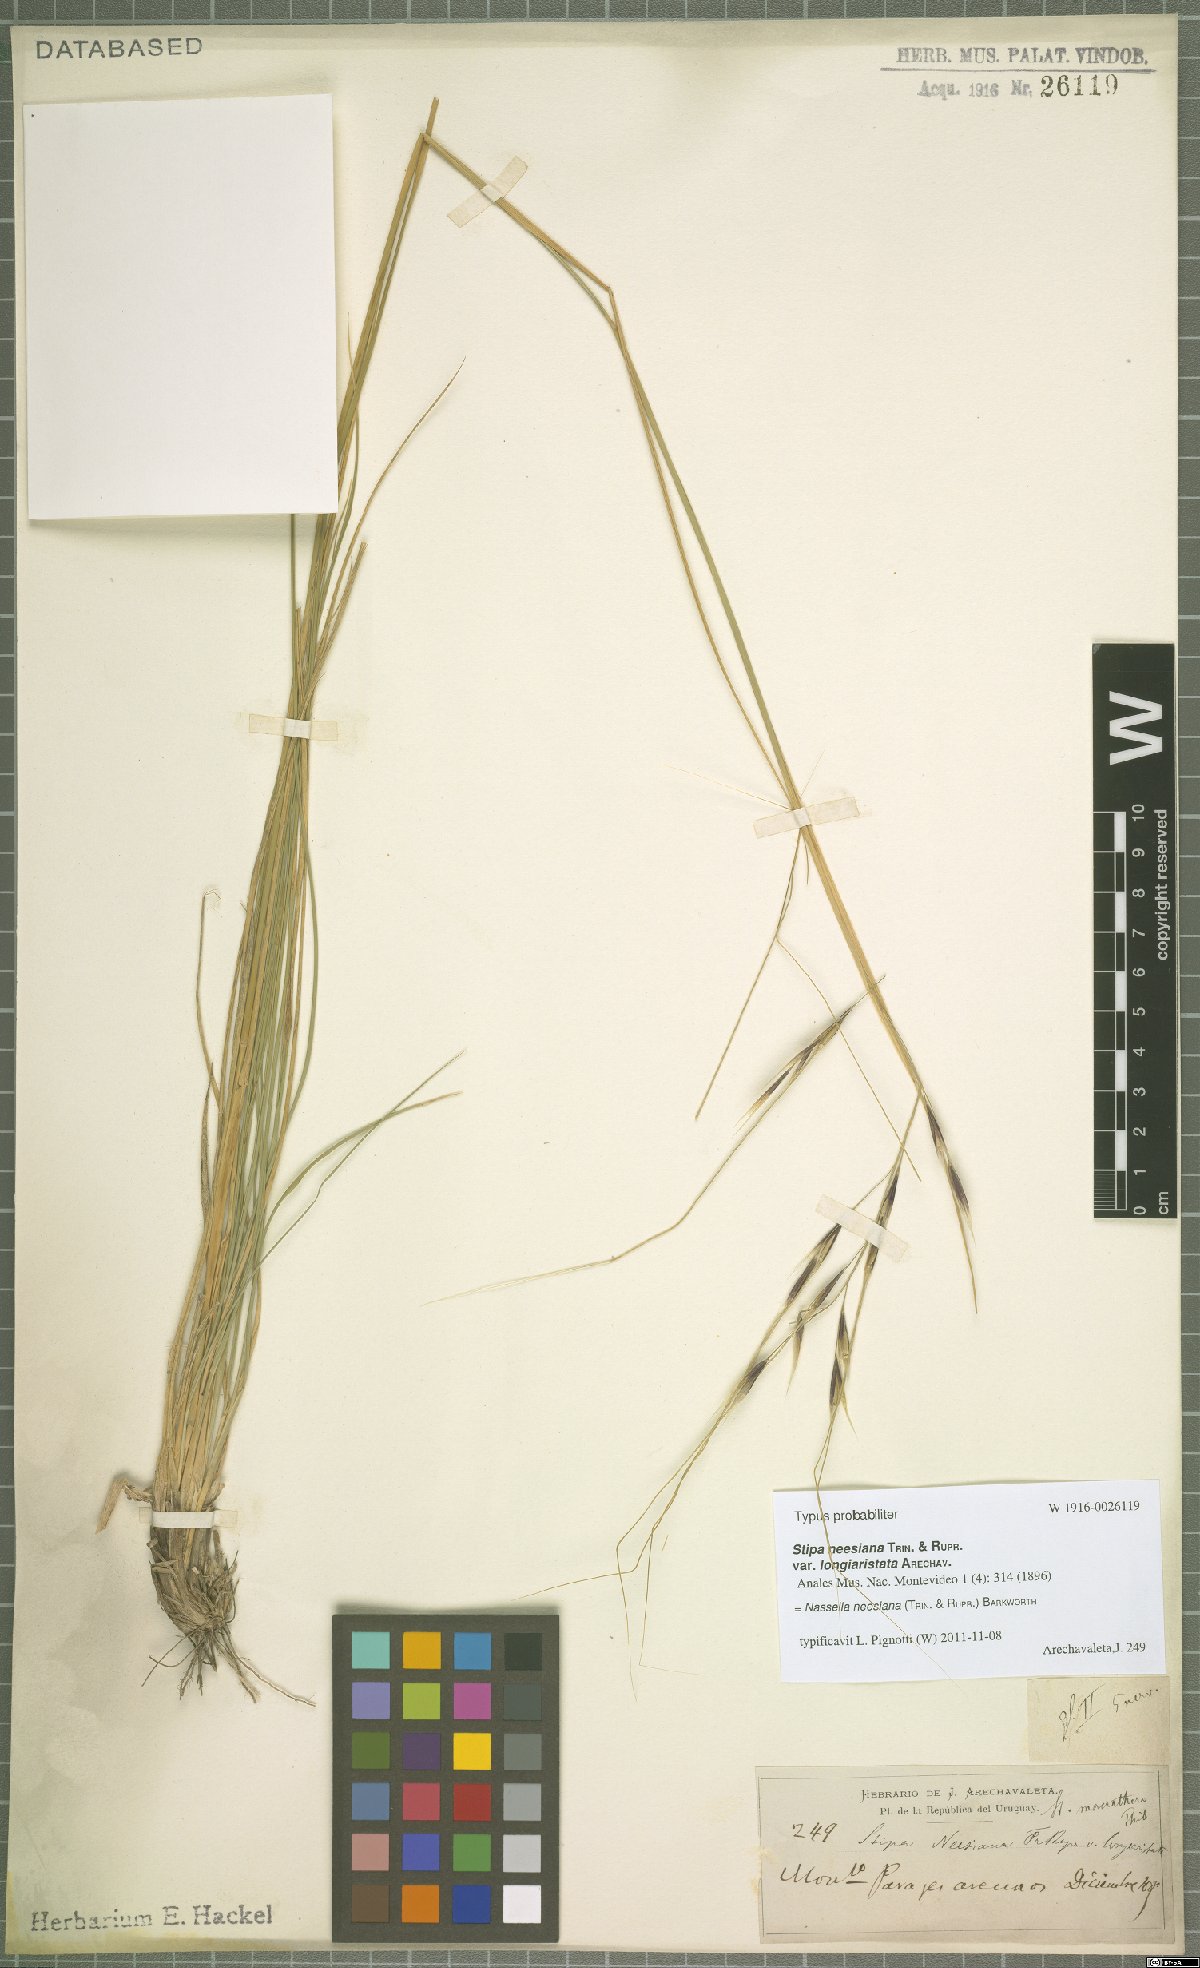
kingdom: Plantae
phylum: Tracheophyta
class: Liliopsida
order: Poales
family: Poaceae
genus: Nassella
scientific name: Nassella neesiana
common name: American needle-grass
